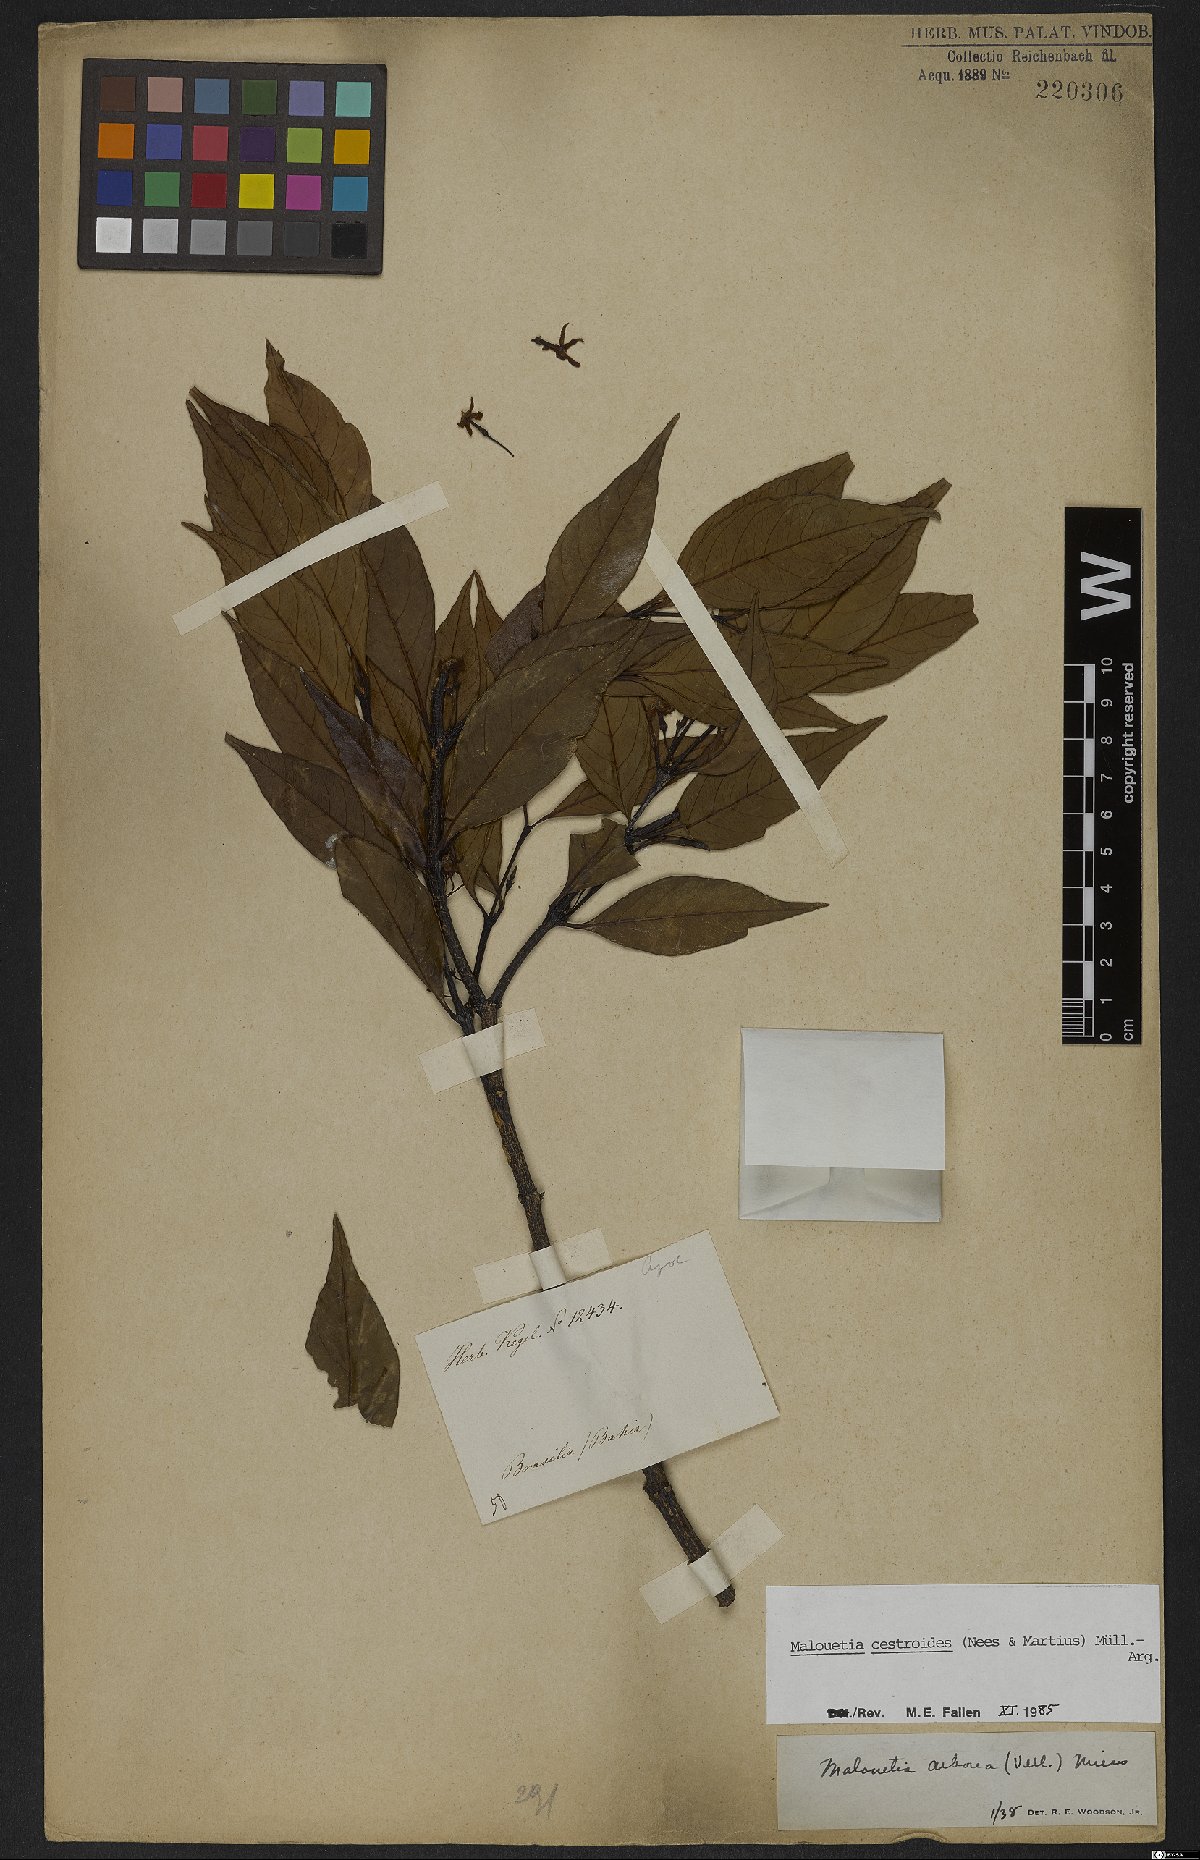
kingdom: Plantae
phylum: Tracheophyta
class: Magnoliopsida
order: Lamiales
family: Lamiaceae
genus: Aegiphila
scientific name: Aegiphila fluminensis
